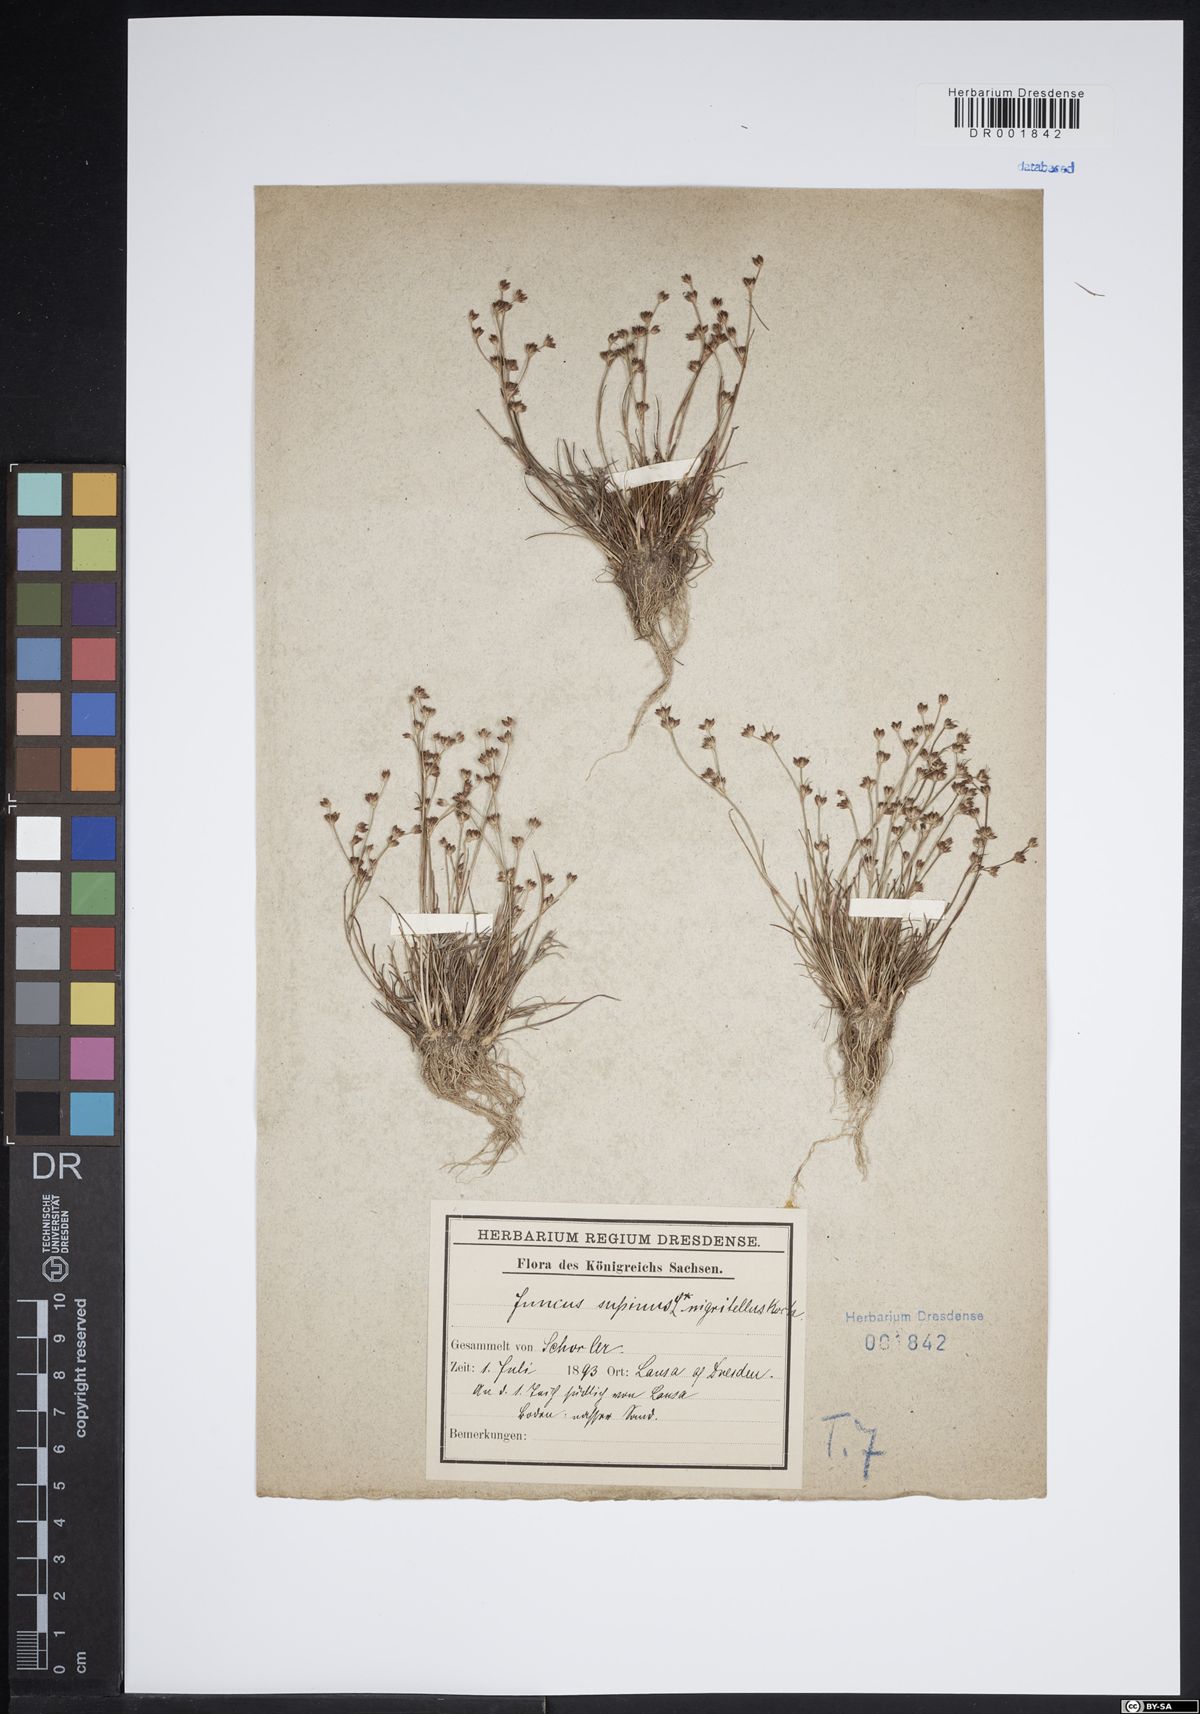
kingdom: Plantae
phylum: Tracheophyta
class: Liliopsida
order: Poales
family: Juncaceae
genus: Juncus
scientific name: Juncus bulbosus
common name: Bulbous rush
